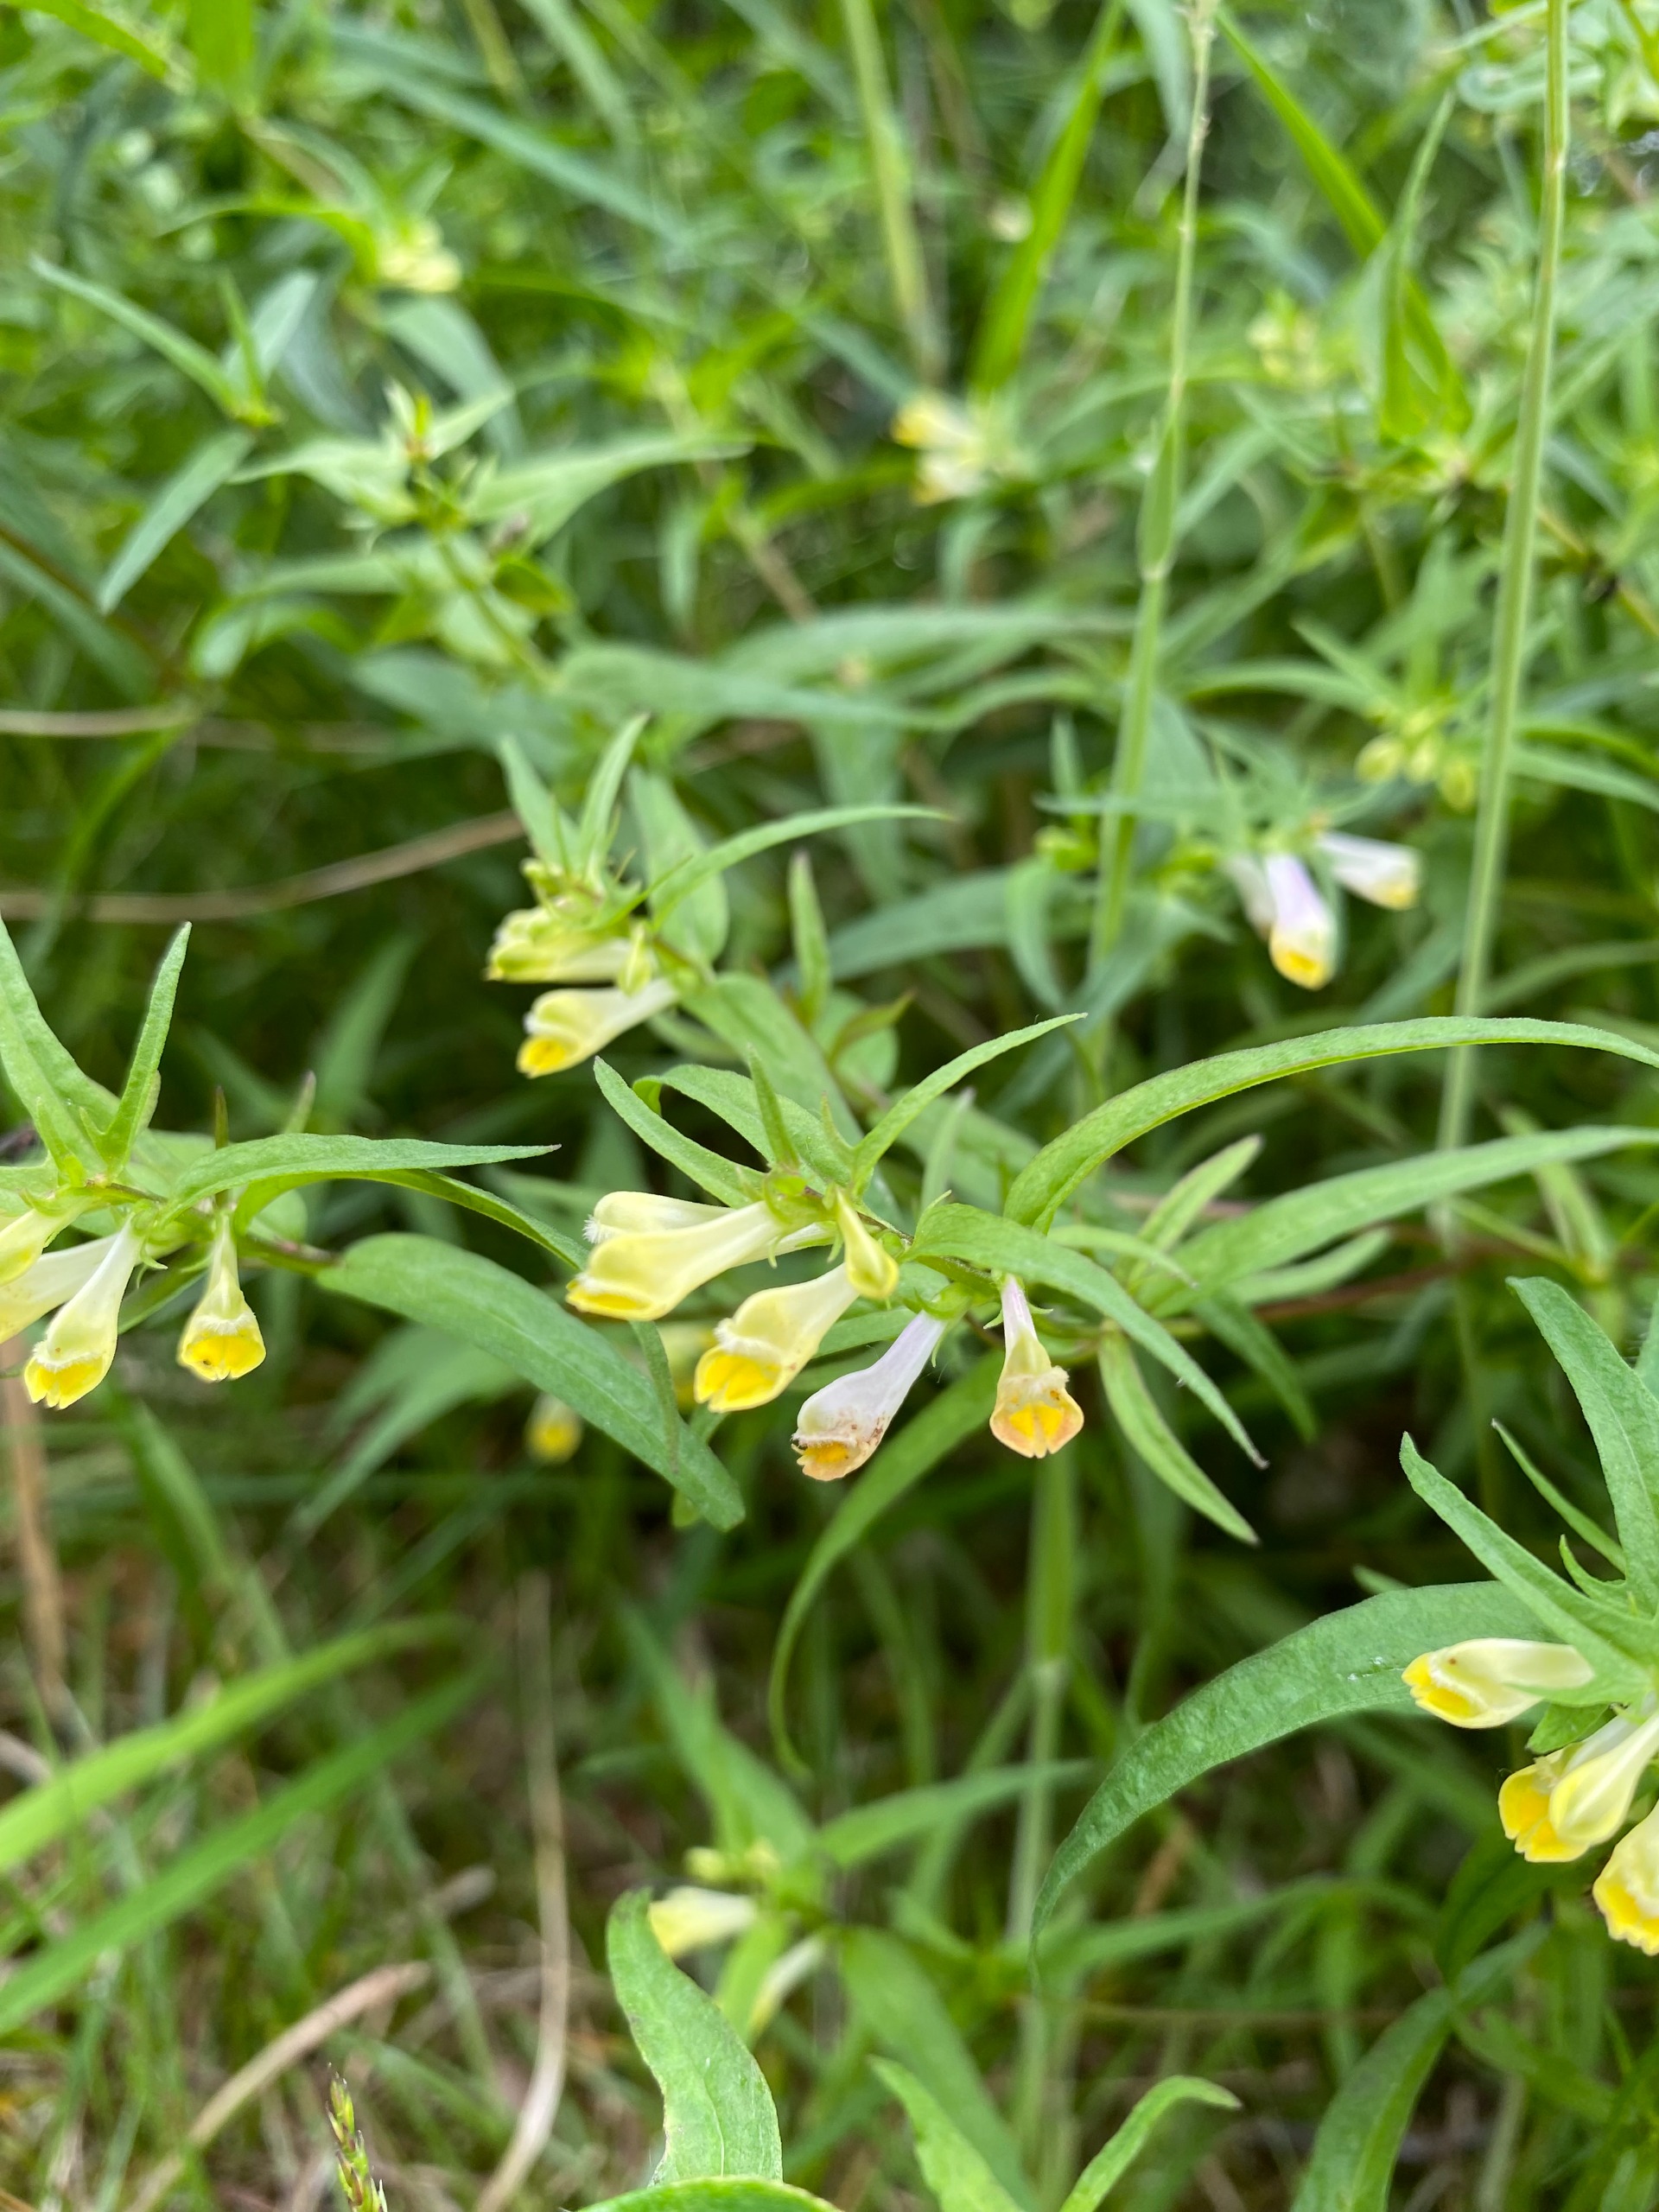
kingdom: Plantae
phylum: Tracheophyta
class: Magnoliopsida
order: Lamiales
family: Orobanchaceae
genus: Melampyrum
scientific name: Melampyrum pratense
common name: Almindelig kohvede
